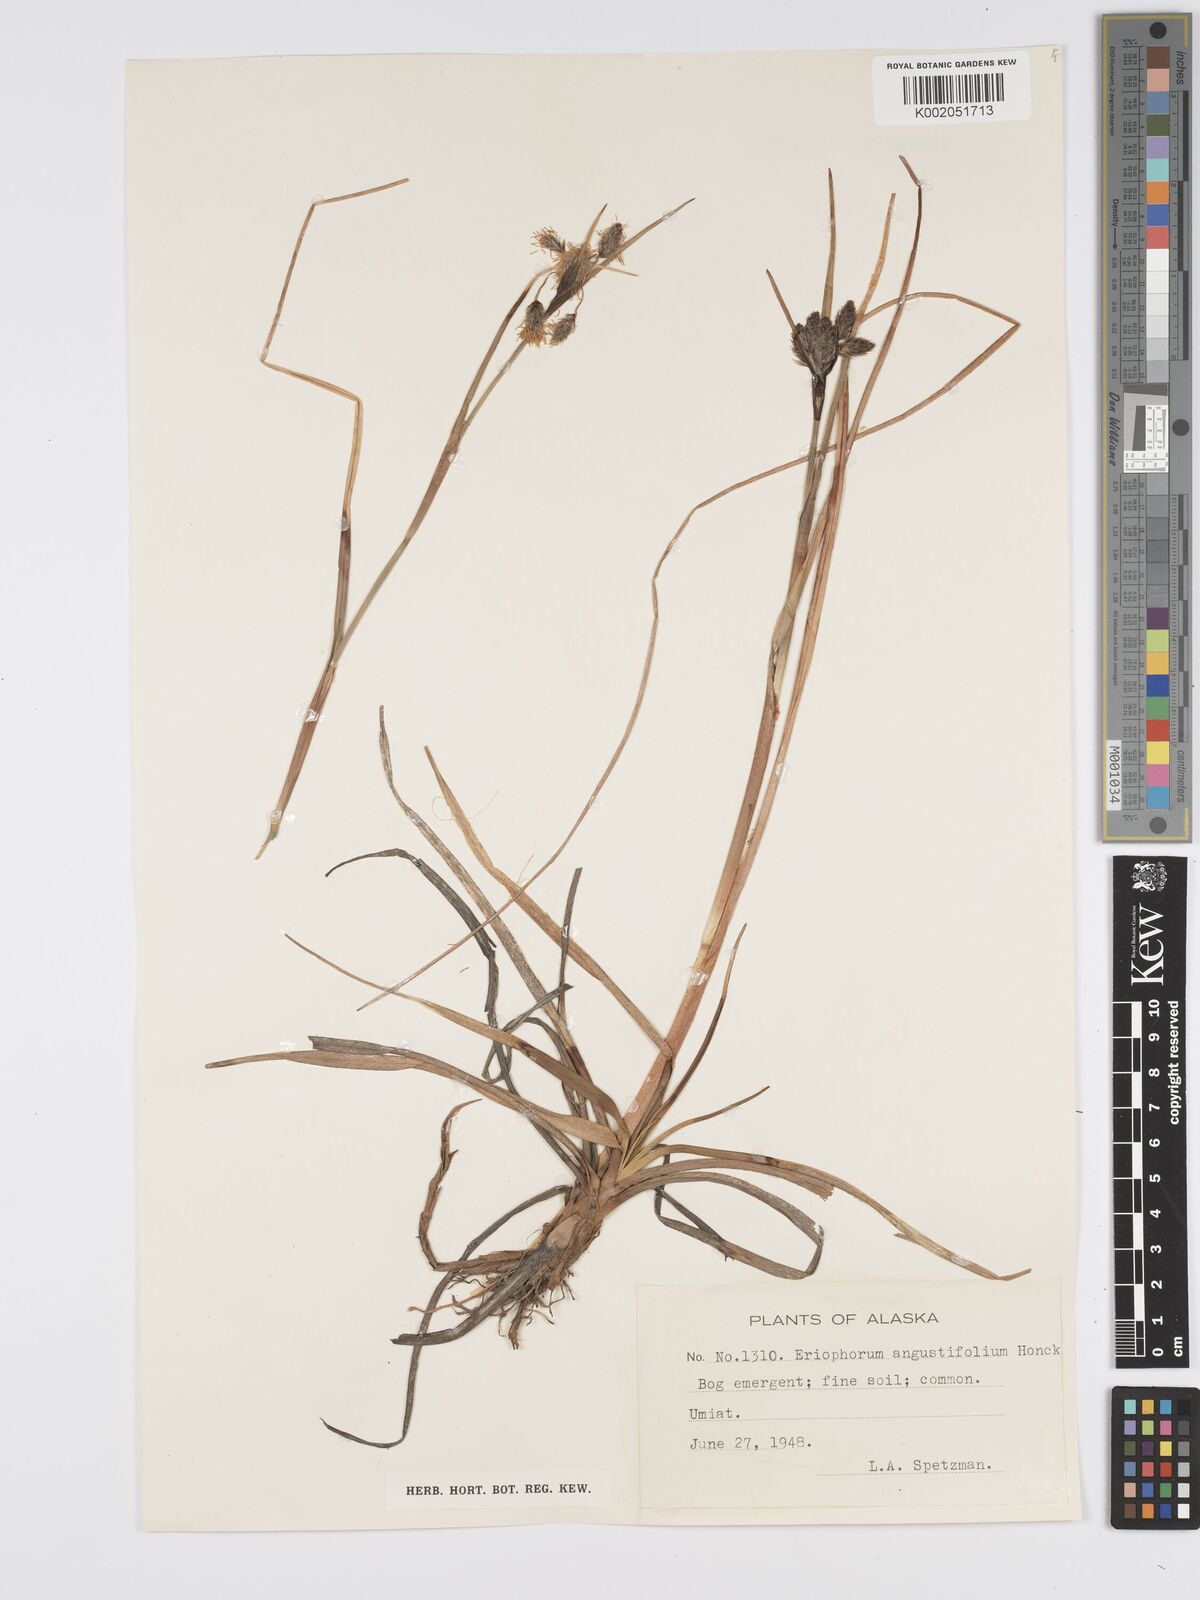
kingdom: Plantae
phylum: Tracheophyta
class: Liliopsida
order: Poales
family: Cyperaceae
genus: Eriophorum
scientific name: Eriophorum angustifolium
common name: Common cottongrass
